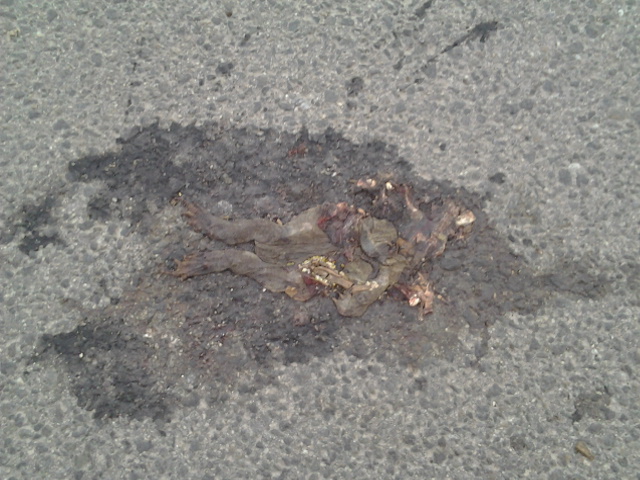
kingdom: Animalia
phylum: Chordata
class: Amphibia
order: Anura
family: Bufonidae
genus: Bufo
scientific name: Bufo bufo
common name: Common toad
